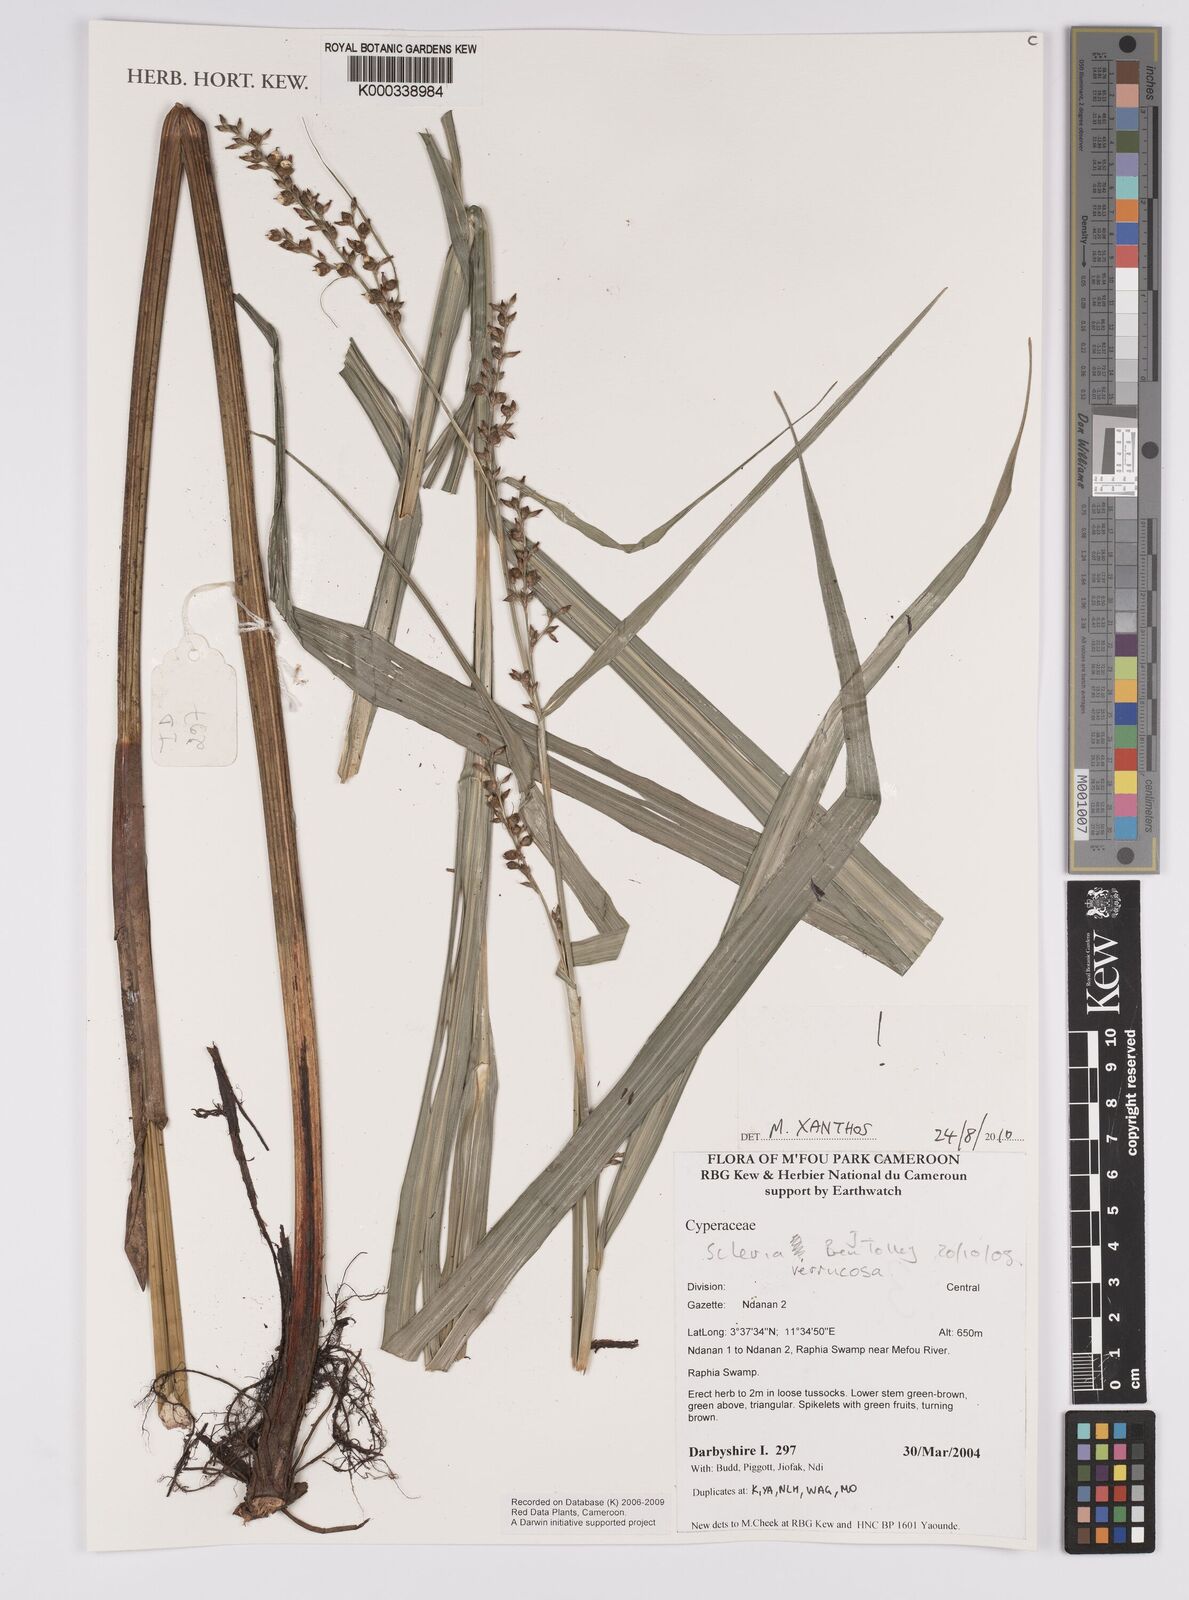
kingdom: Plantae
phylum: Tracheophyta
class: Liliopsida
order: Poales
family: Cyperaceae
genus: Scleria
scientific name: Scleria verrucosa
